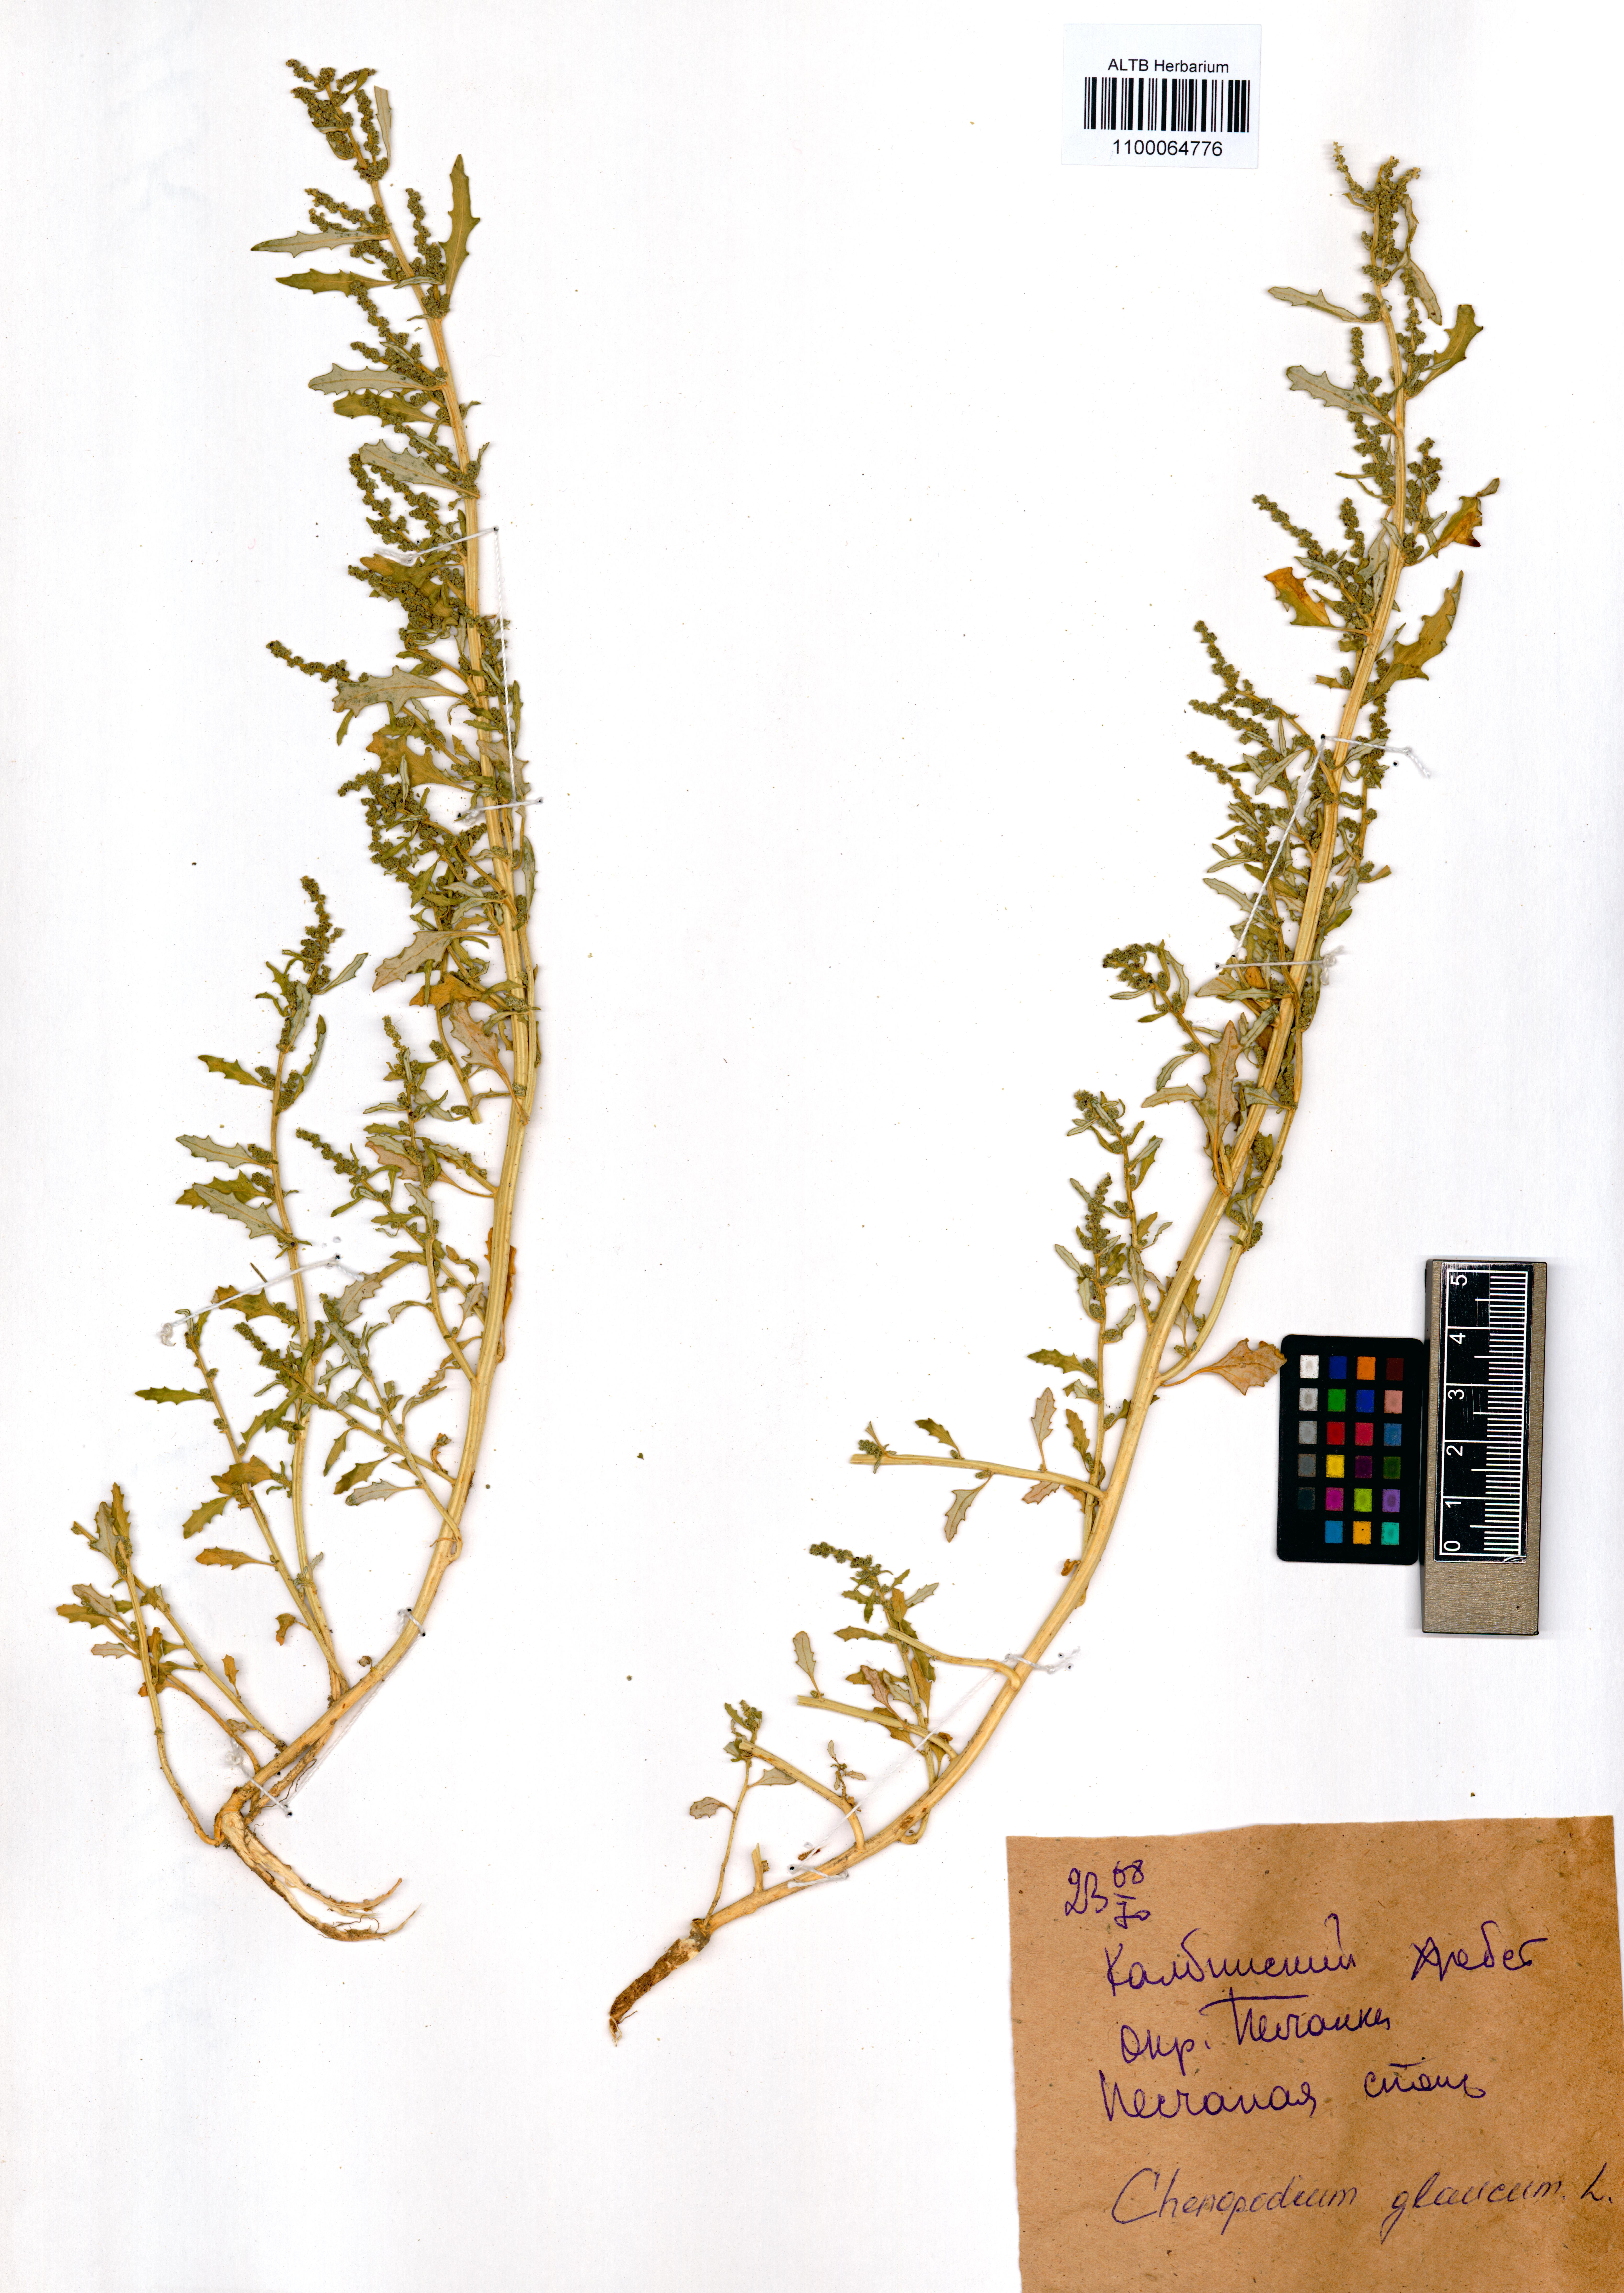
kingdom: Plantae
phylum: Tracheophyta
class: Magnoliopsida
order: Caryophyllales
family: Amaranthaceae
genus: Oxybasis
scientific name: Oxybasis glauca
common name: Glaucous goosefoot
